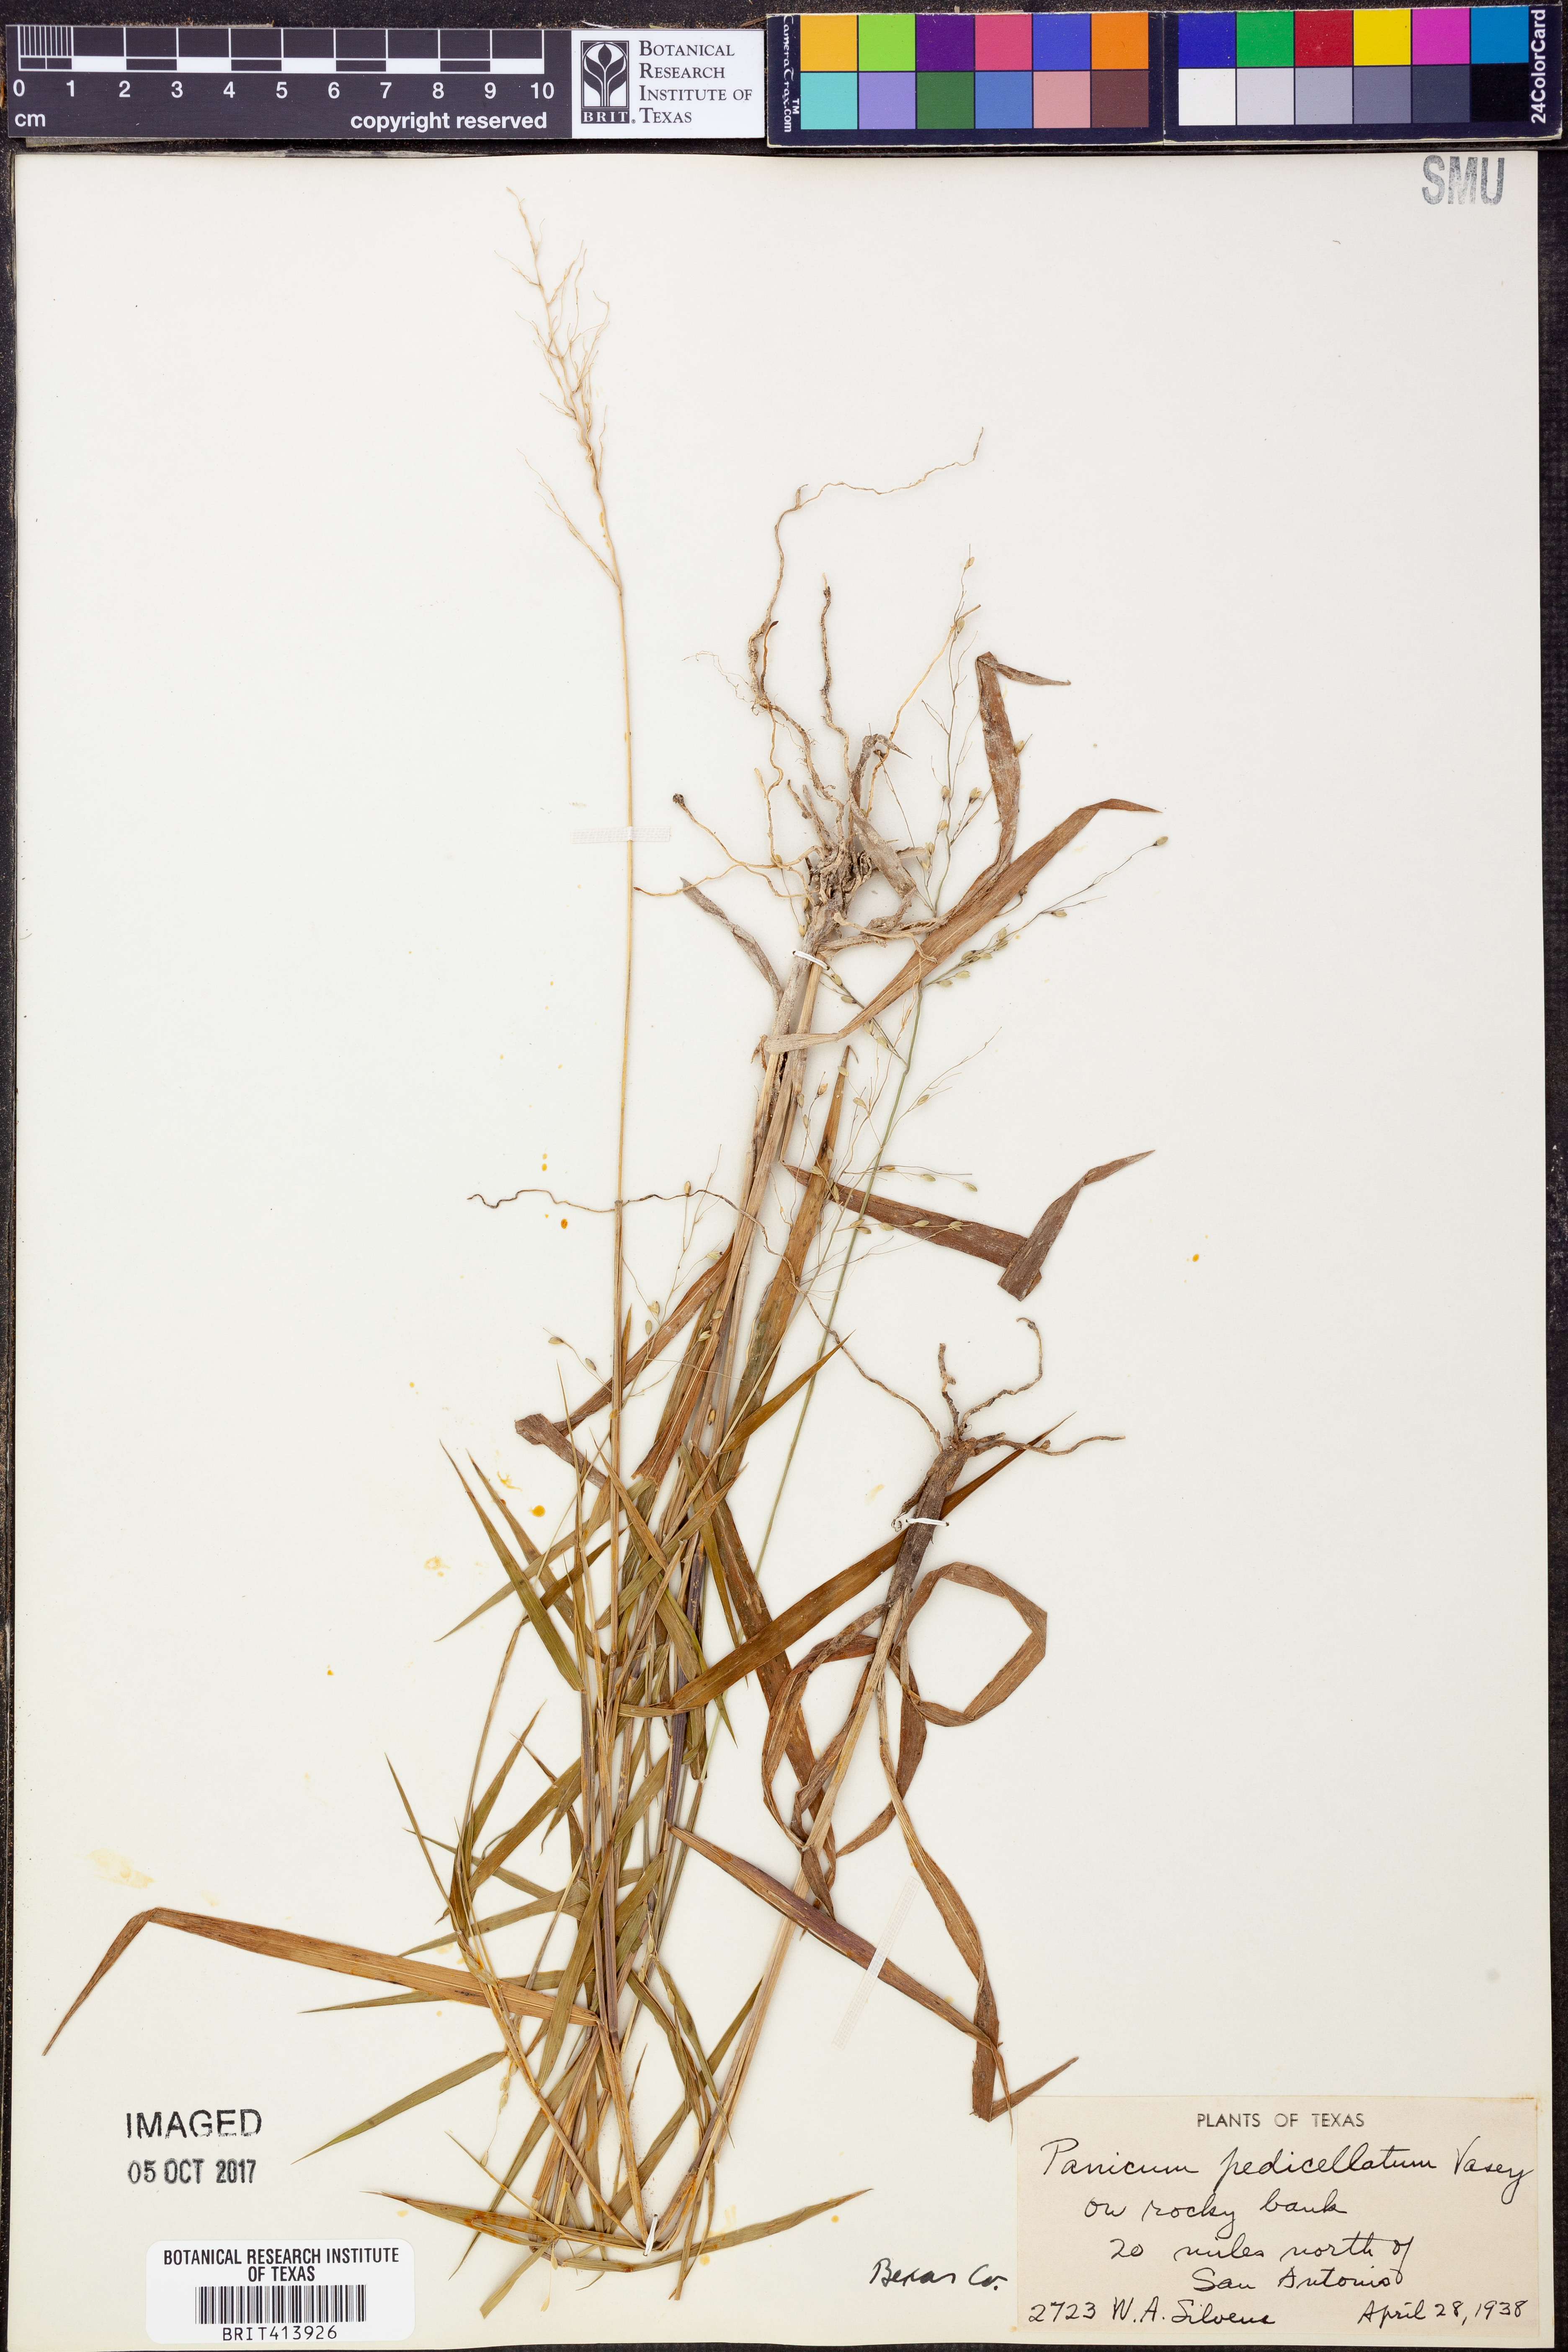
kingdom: Plantae
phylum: Tracheophyta
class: Liliopsida
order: Poales
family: Poaceae
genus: Dichanthelium
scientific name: Dichanthelium transiens
